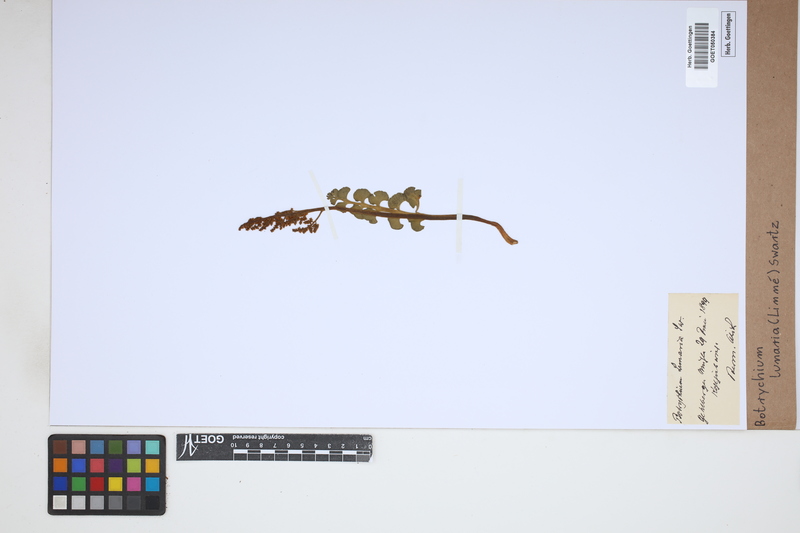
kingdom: Plantae
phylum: Tracheophyta
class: Polypodiopsida
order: Ophioglossales
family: Ophioglossaceae
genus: Botrychium
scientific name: Botrychium lunaria
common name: Moonwort
